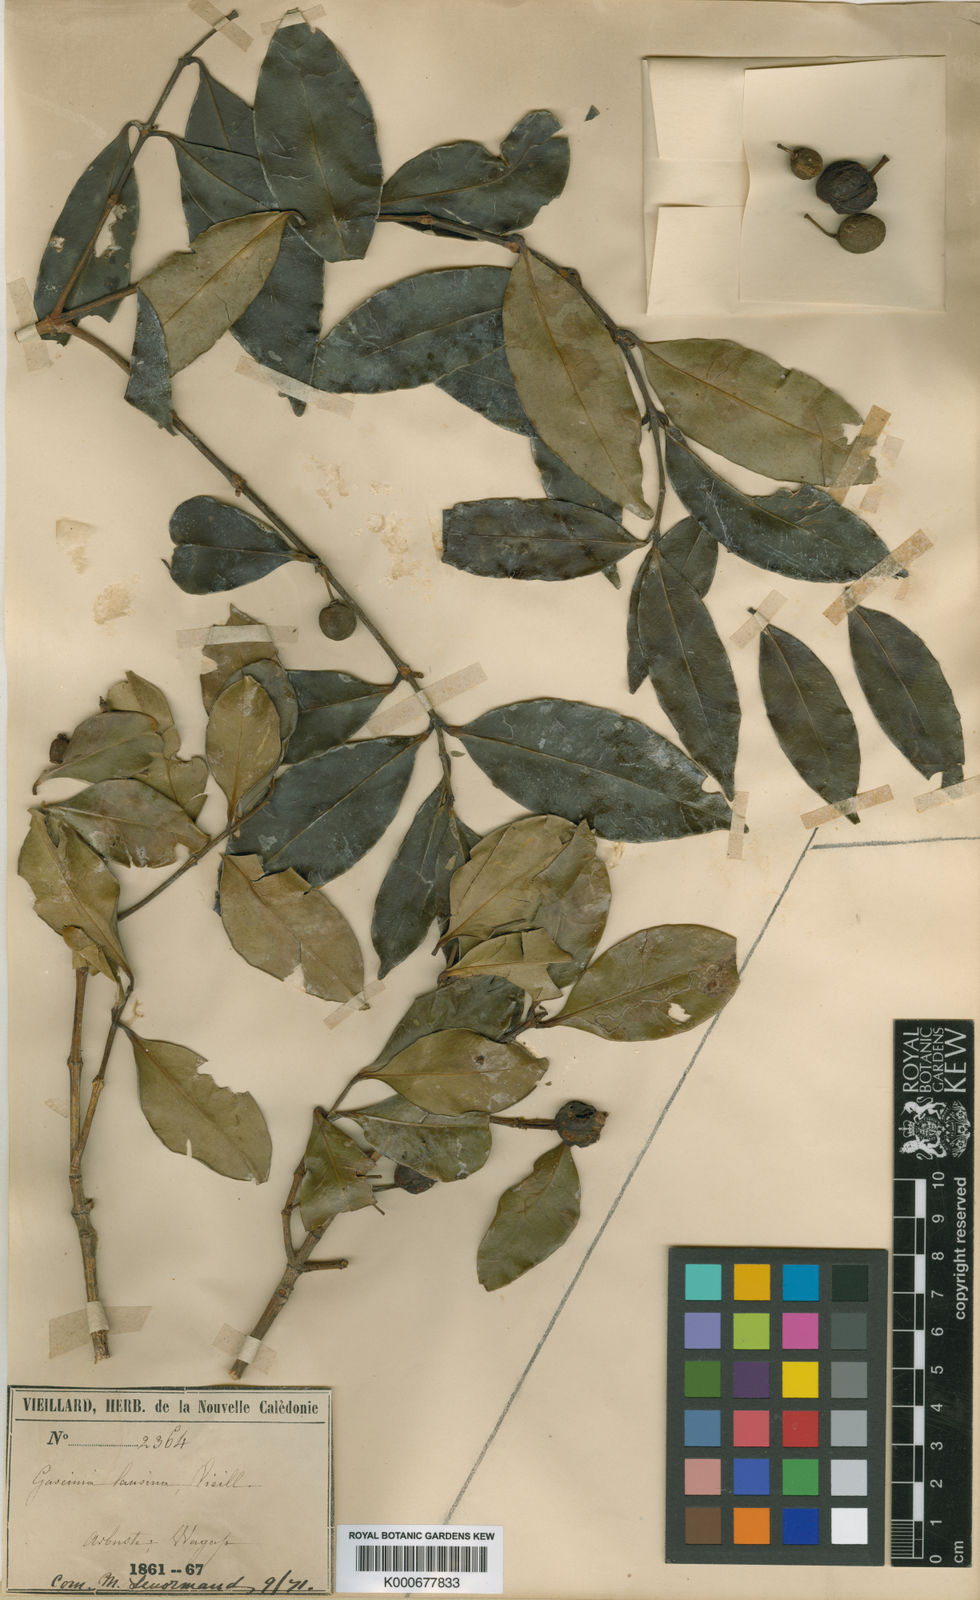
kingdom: Plantae
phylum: Tracheophyta
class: Magnoliopsida
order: Malpighiales
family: Clusiaceae
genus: Garcinia
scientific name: Garcinia
